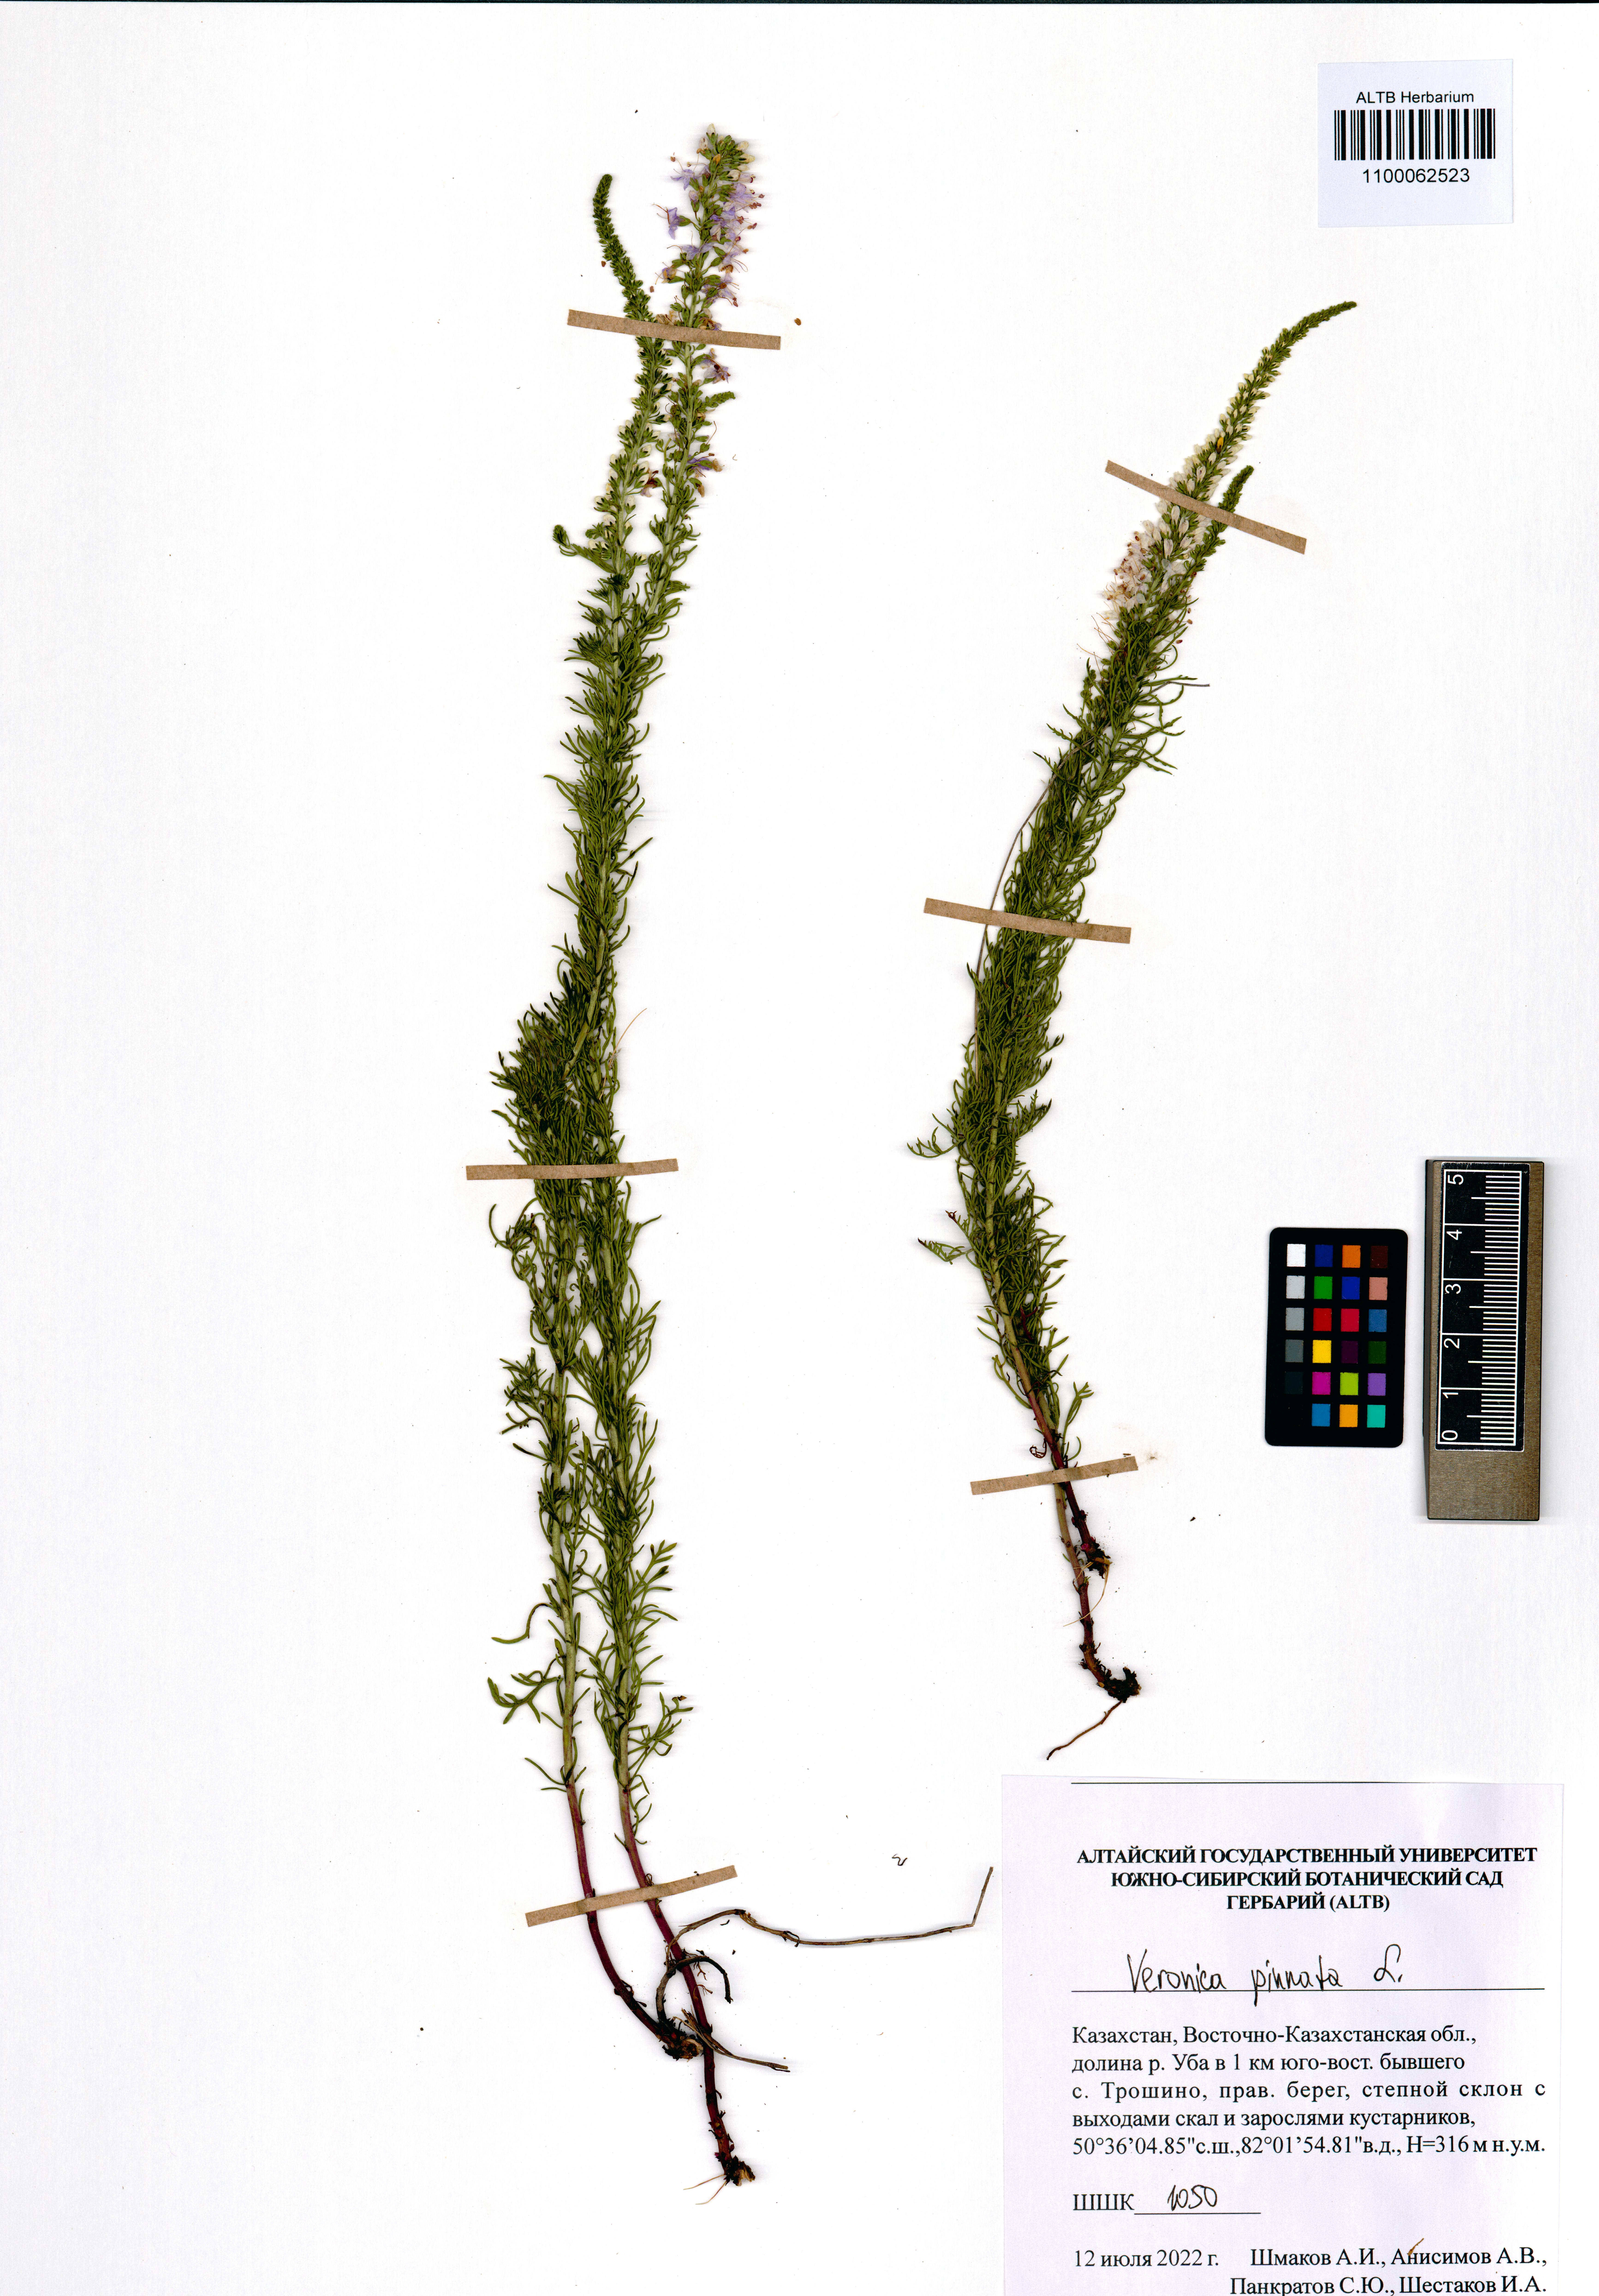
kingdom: Plantae
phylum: Tracheophyta
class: Magnoliopsida
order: Lamiales
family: Plantaginaceae
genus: Veronica
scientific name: Veronica pinnata
